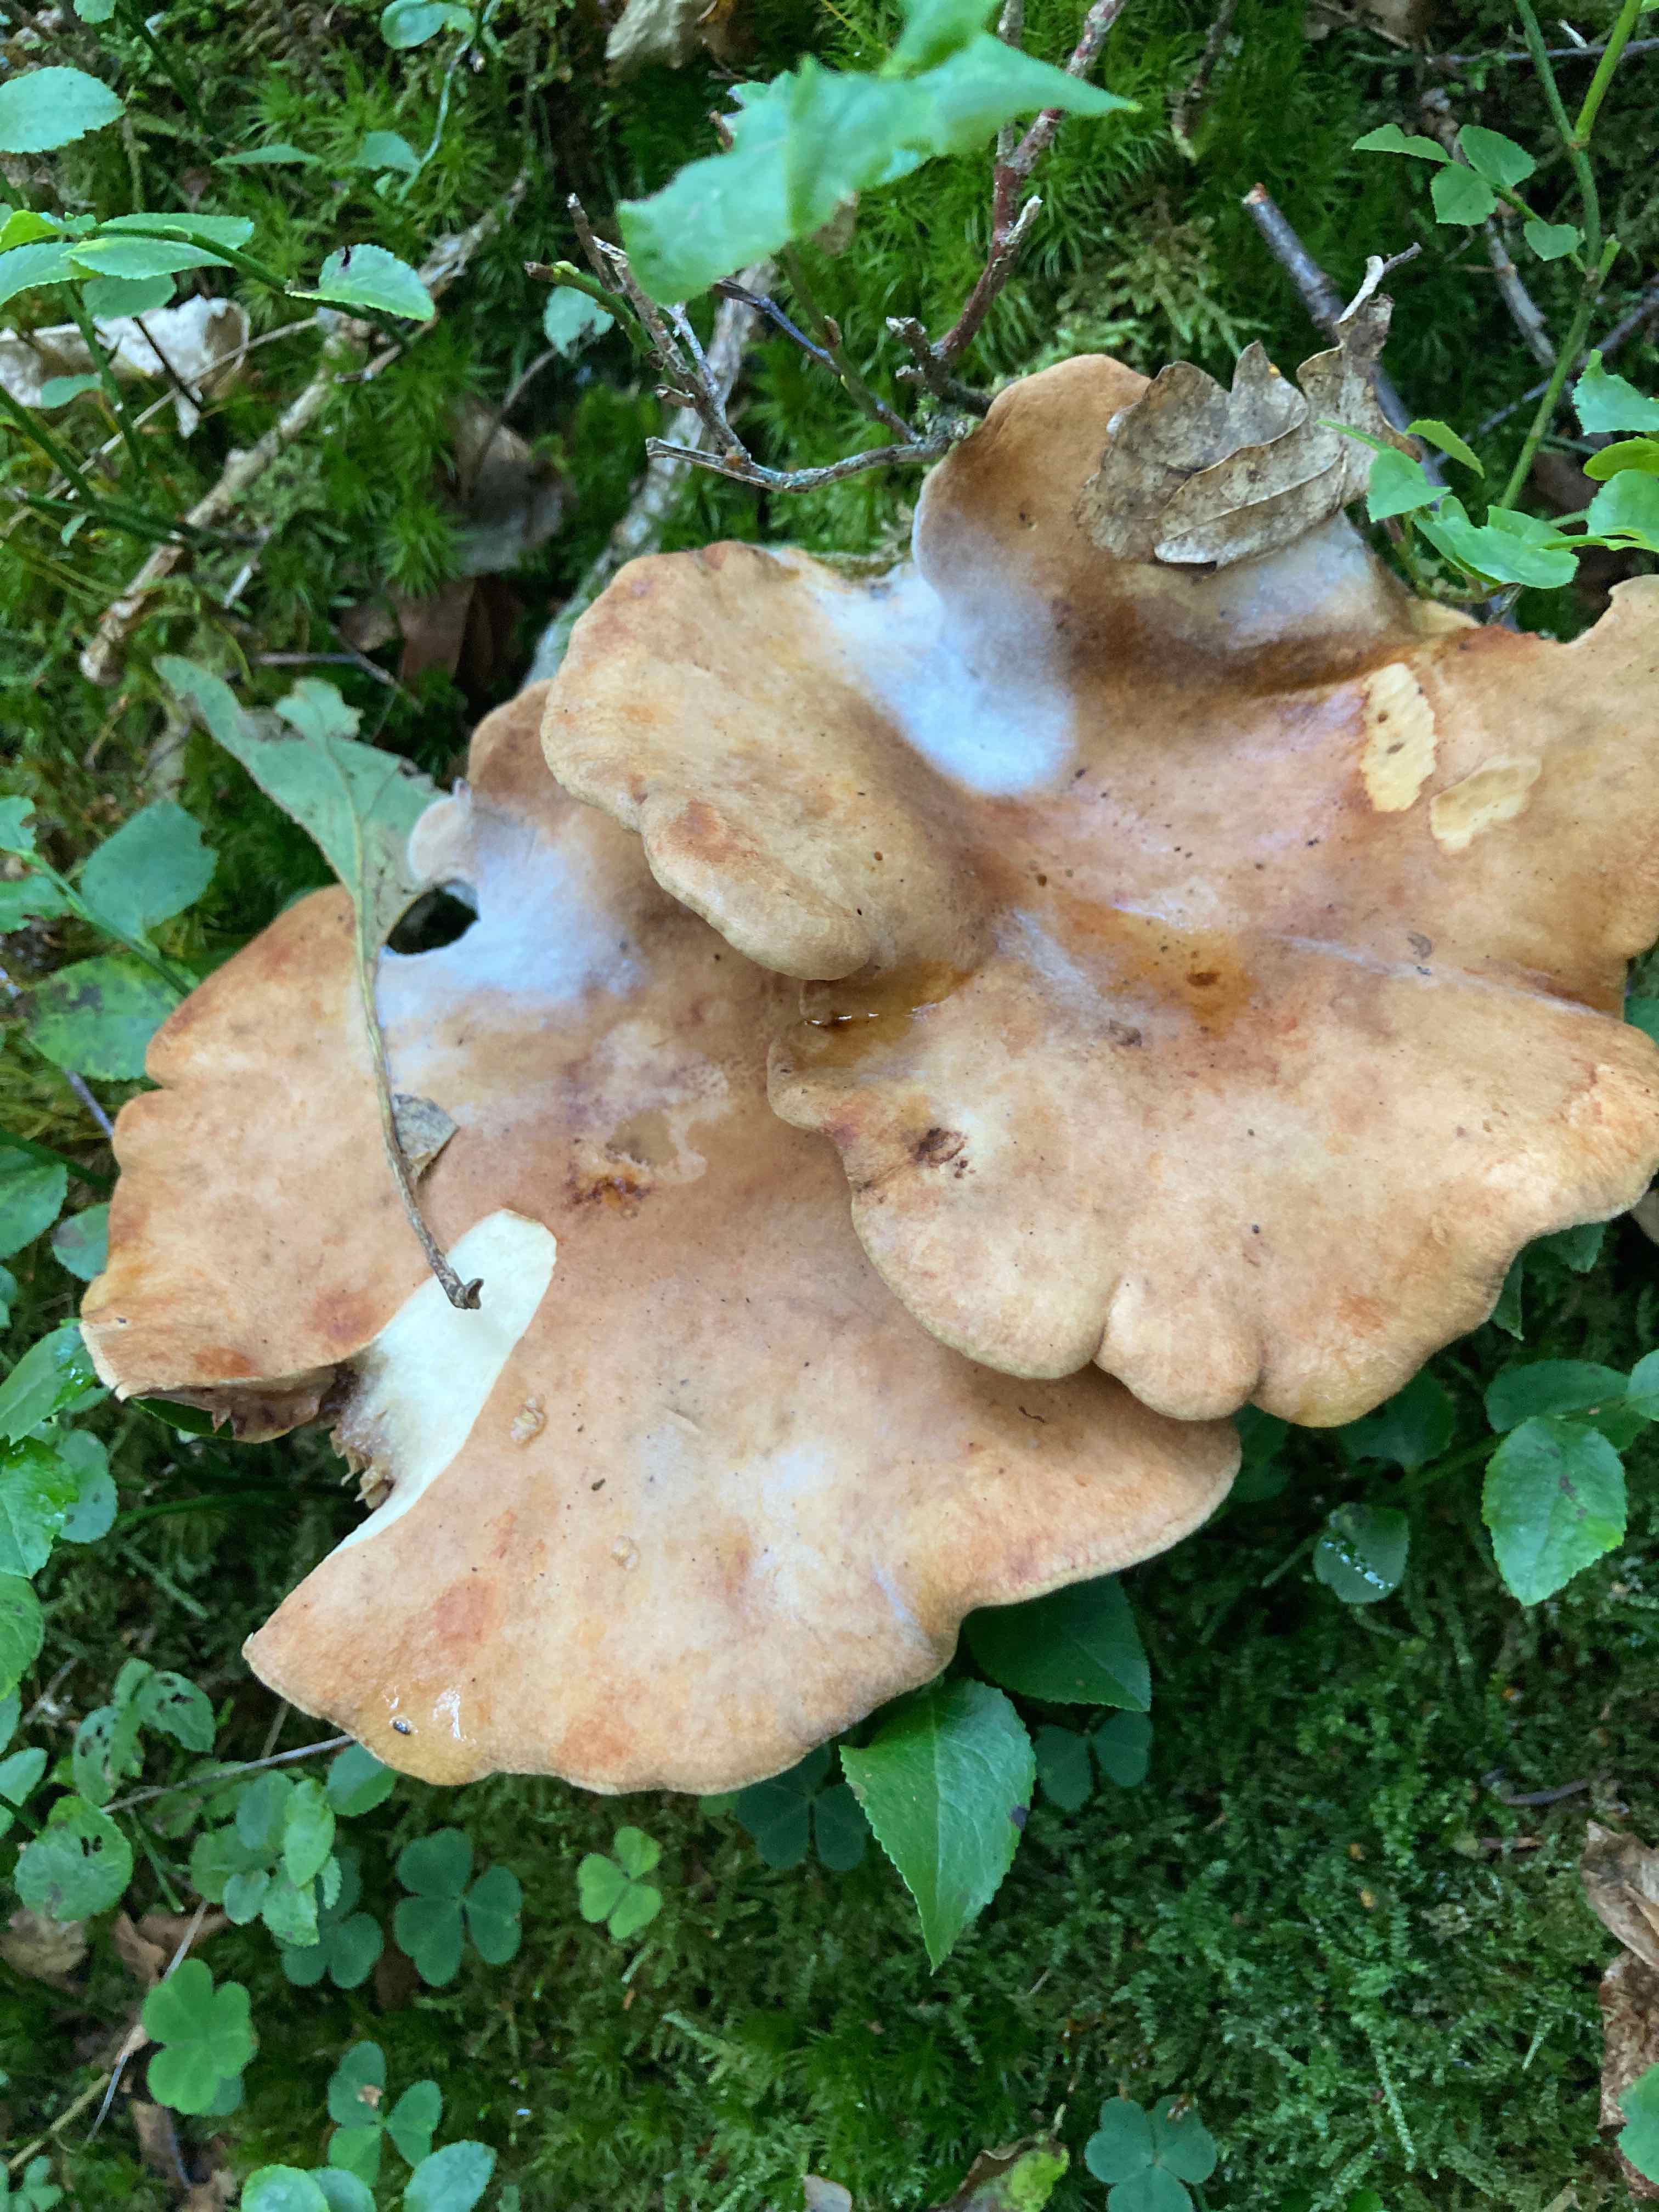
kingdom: Fungi
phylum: Basidiomycota
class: Agaricomycetes
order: Boletales
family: Paxillaceae
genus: Paxillus
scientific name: Paxillus
